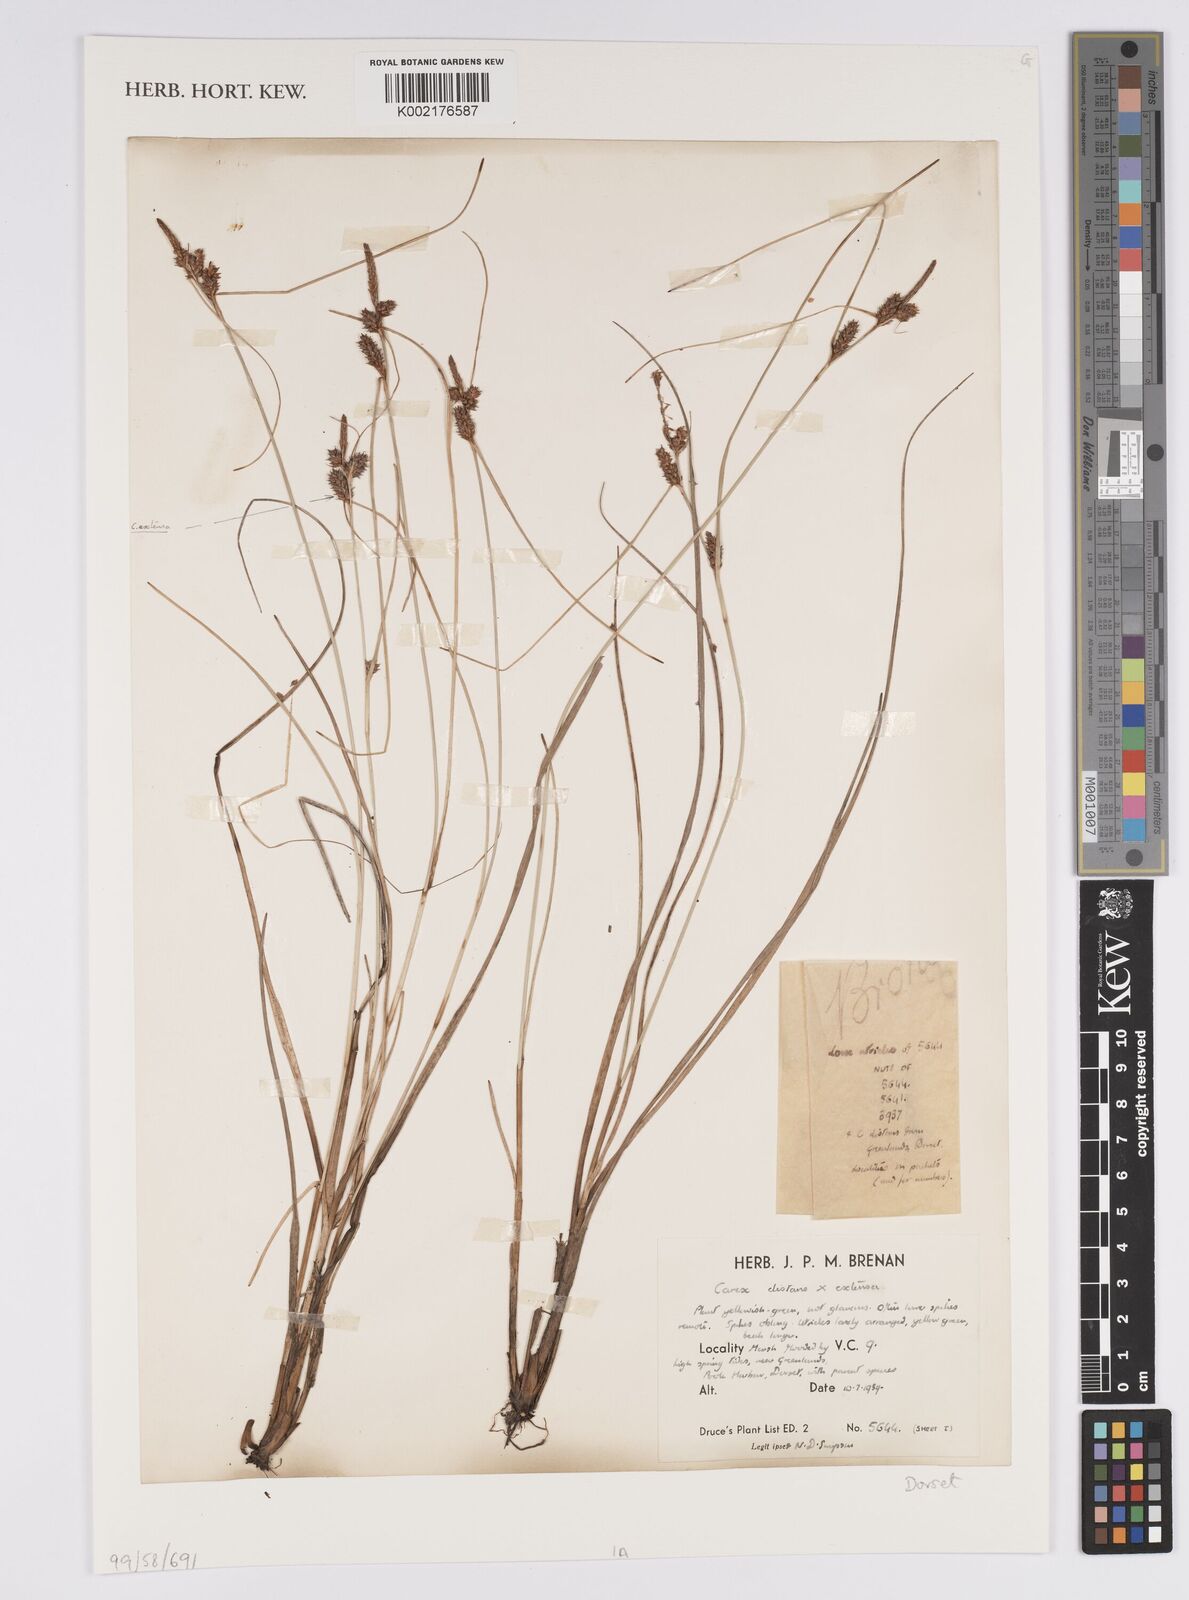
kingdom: Plantae
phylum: Tracheophyta
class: Liliopsida
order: Poales
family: Cyperaceae
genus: Carex
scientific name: Carex distans
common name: Distant sedge
